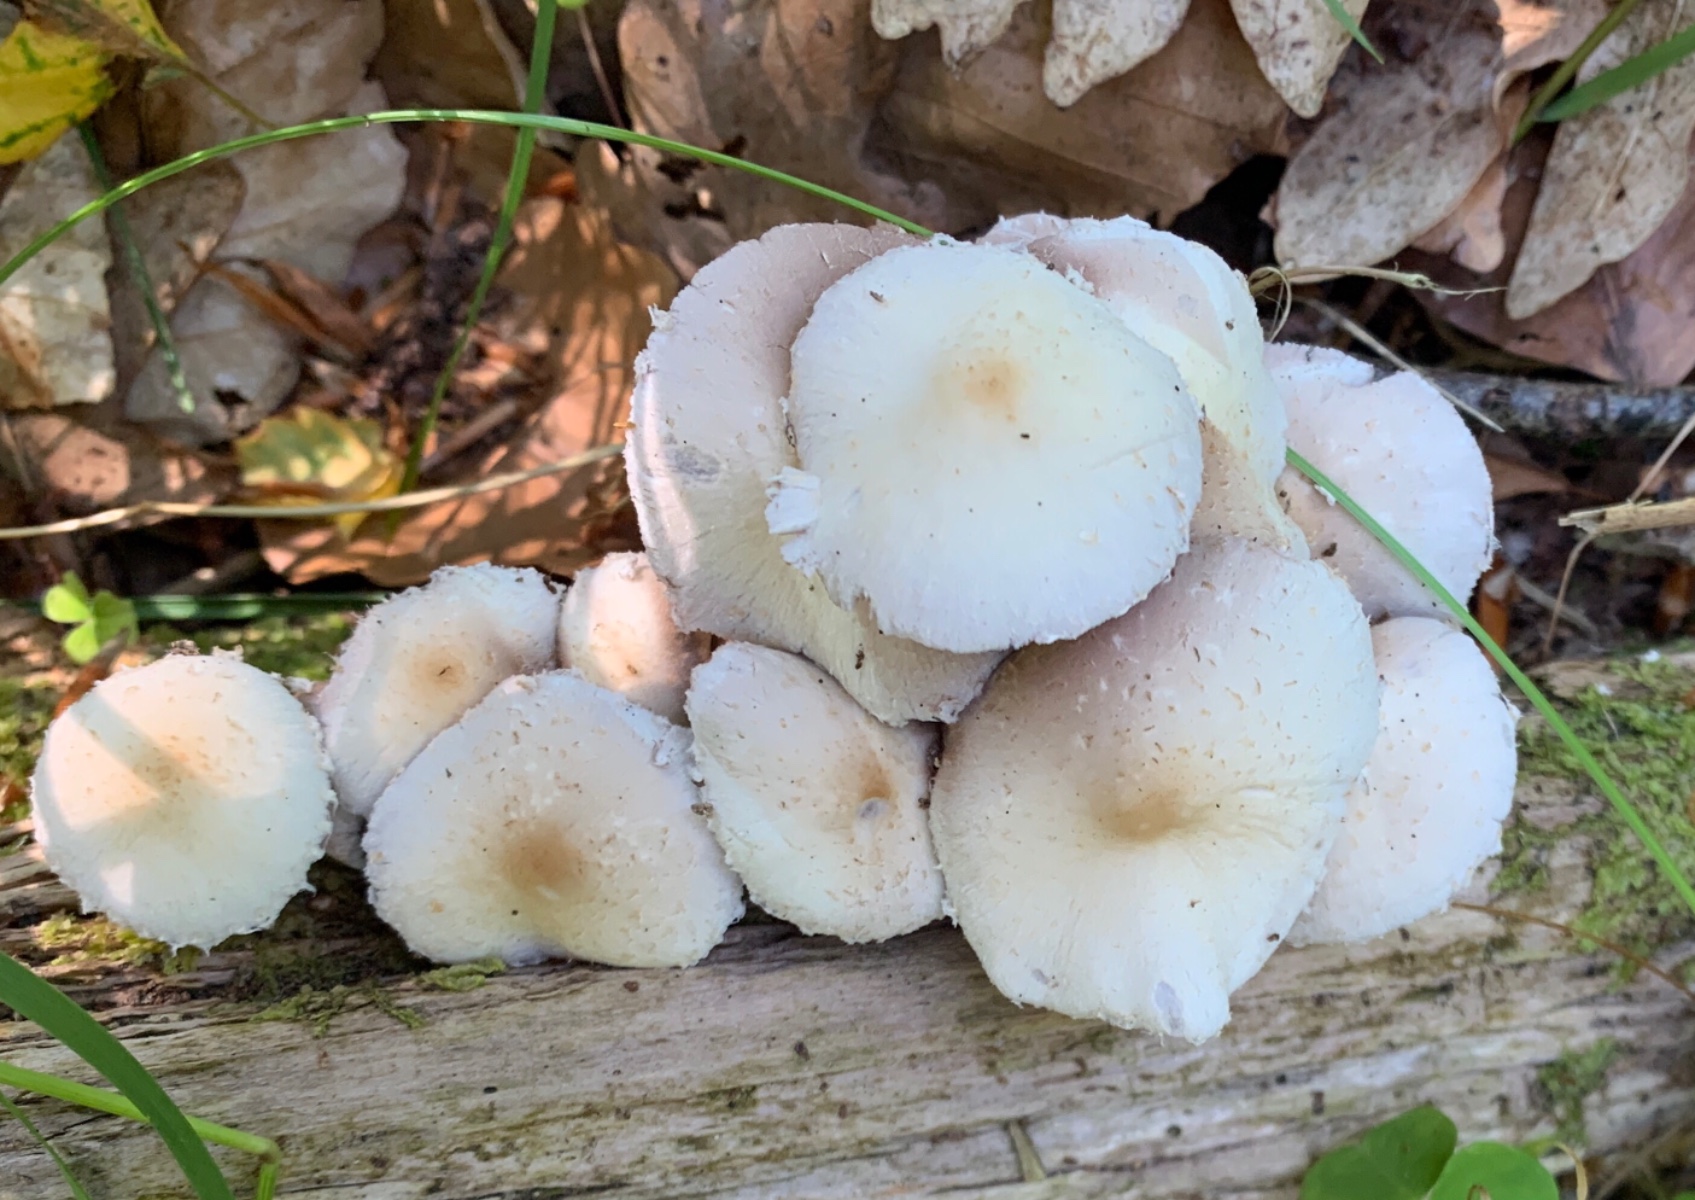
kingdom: Fungi
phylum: Basidiomycota
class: Agaricomycetes
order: Agaricales
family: Psathyrellaceae
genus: Candolleomyces
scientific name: Candolleomyces candolleanus
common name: Candolles mørkhat
